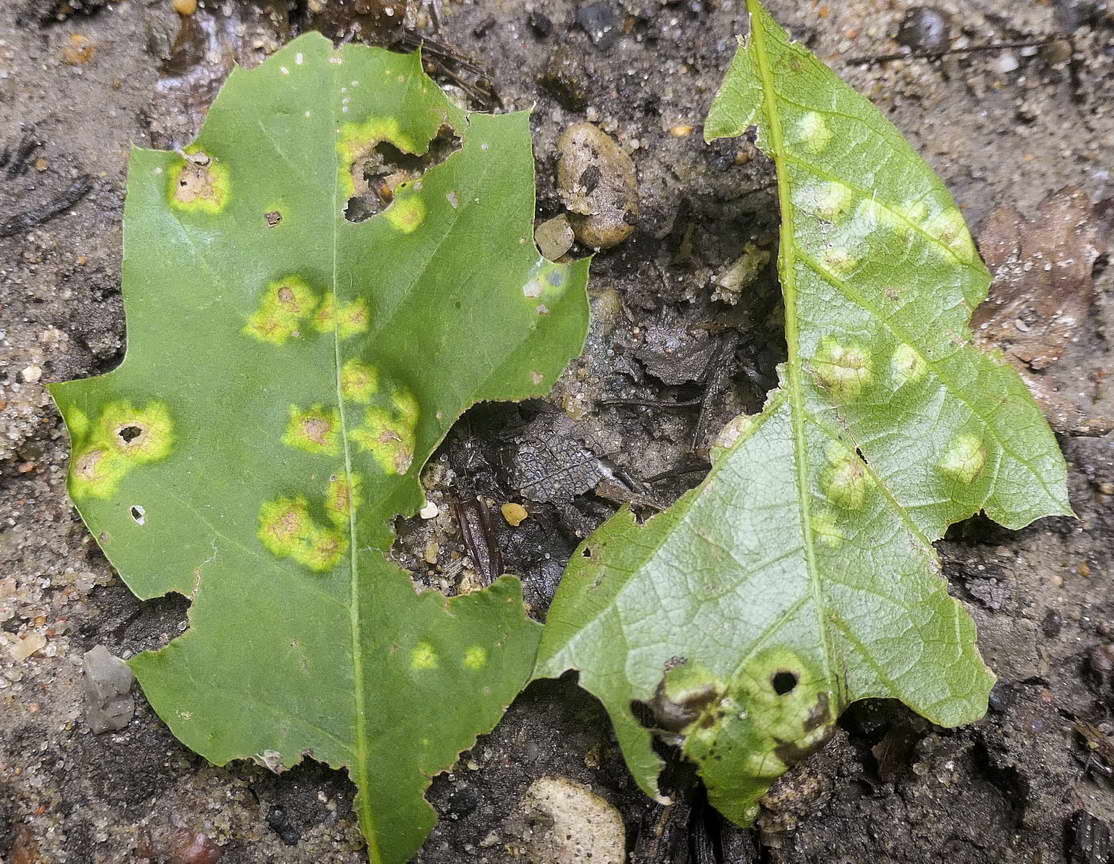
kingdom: Fungi
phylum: Ascomycota
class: Taphrinomycetes
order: Taphrinales
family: Taphrinaceae
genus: Taphrina
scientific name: Taphrina caerulescens
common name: Oak leaf blister
